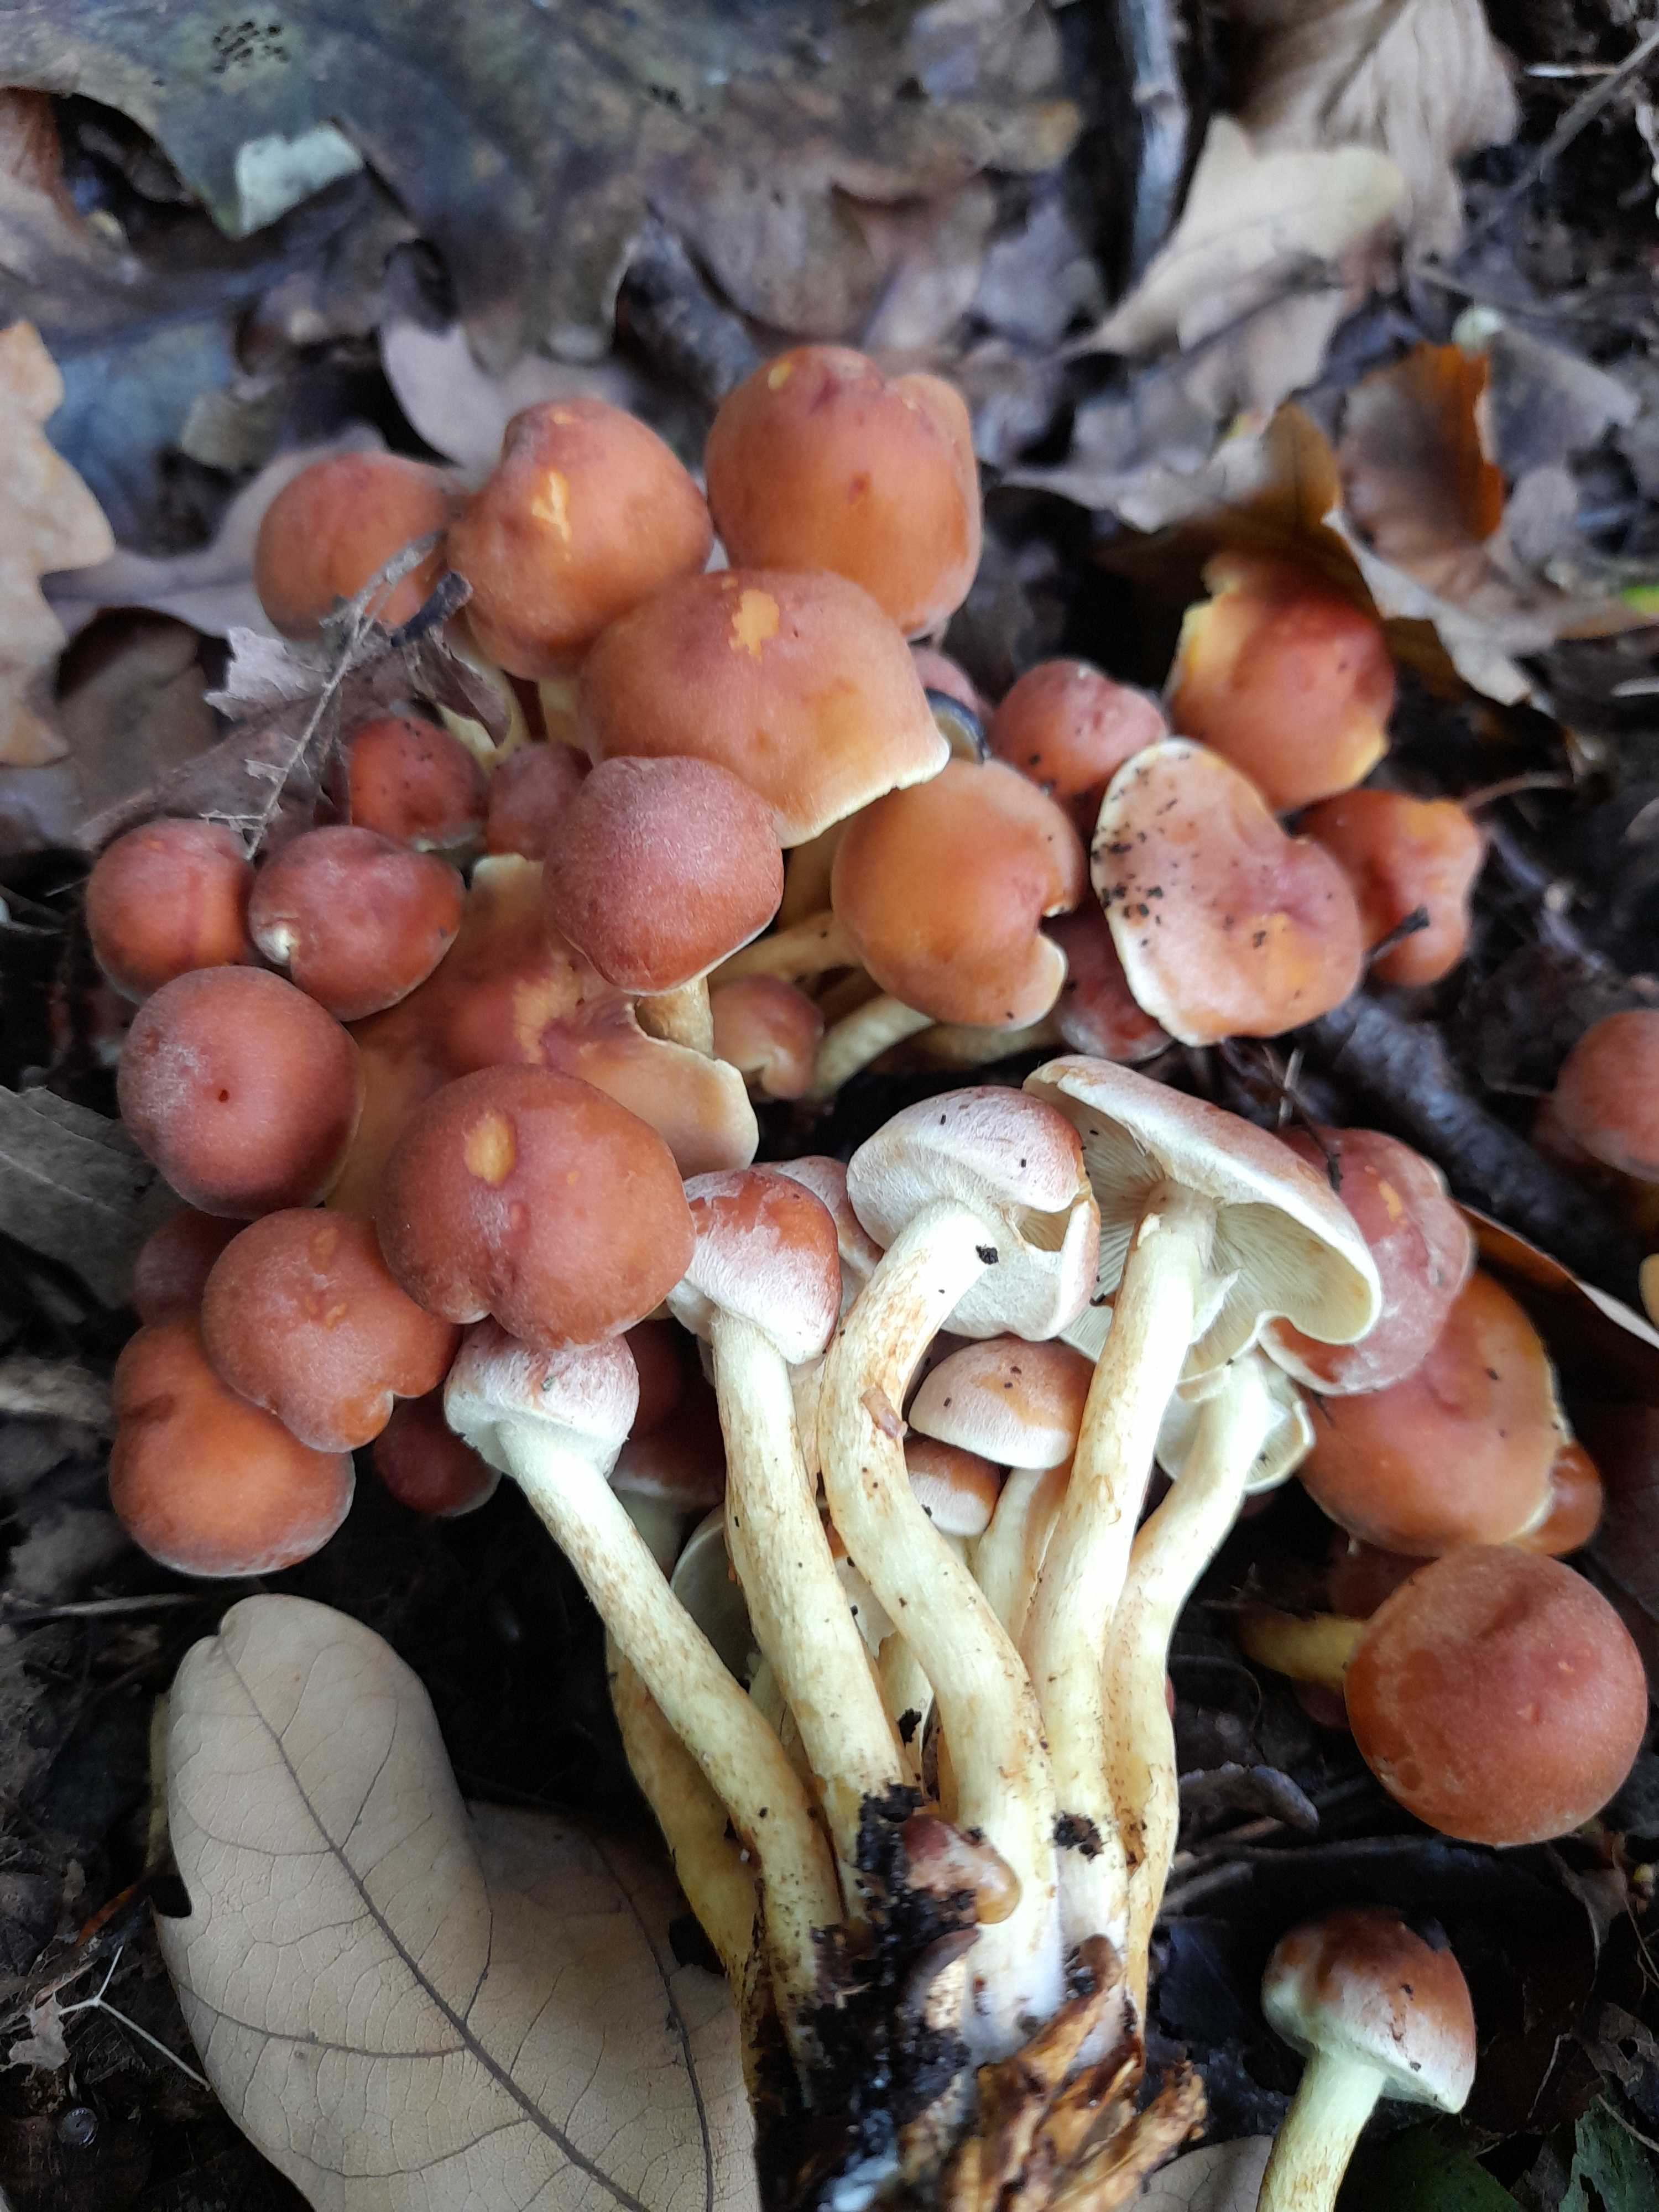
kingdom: Fungi
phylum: Basidiomycota
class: Agaricomycetes
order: Agaricales
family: Strophariaceae
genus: Hypholoma
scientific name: Hypholoma fasciculare
